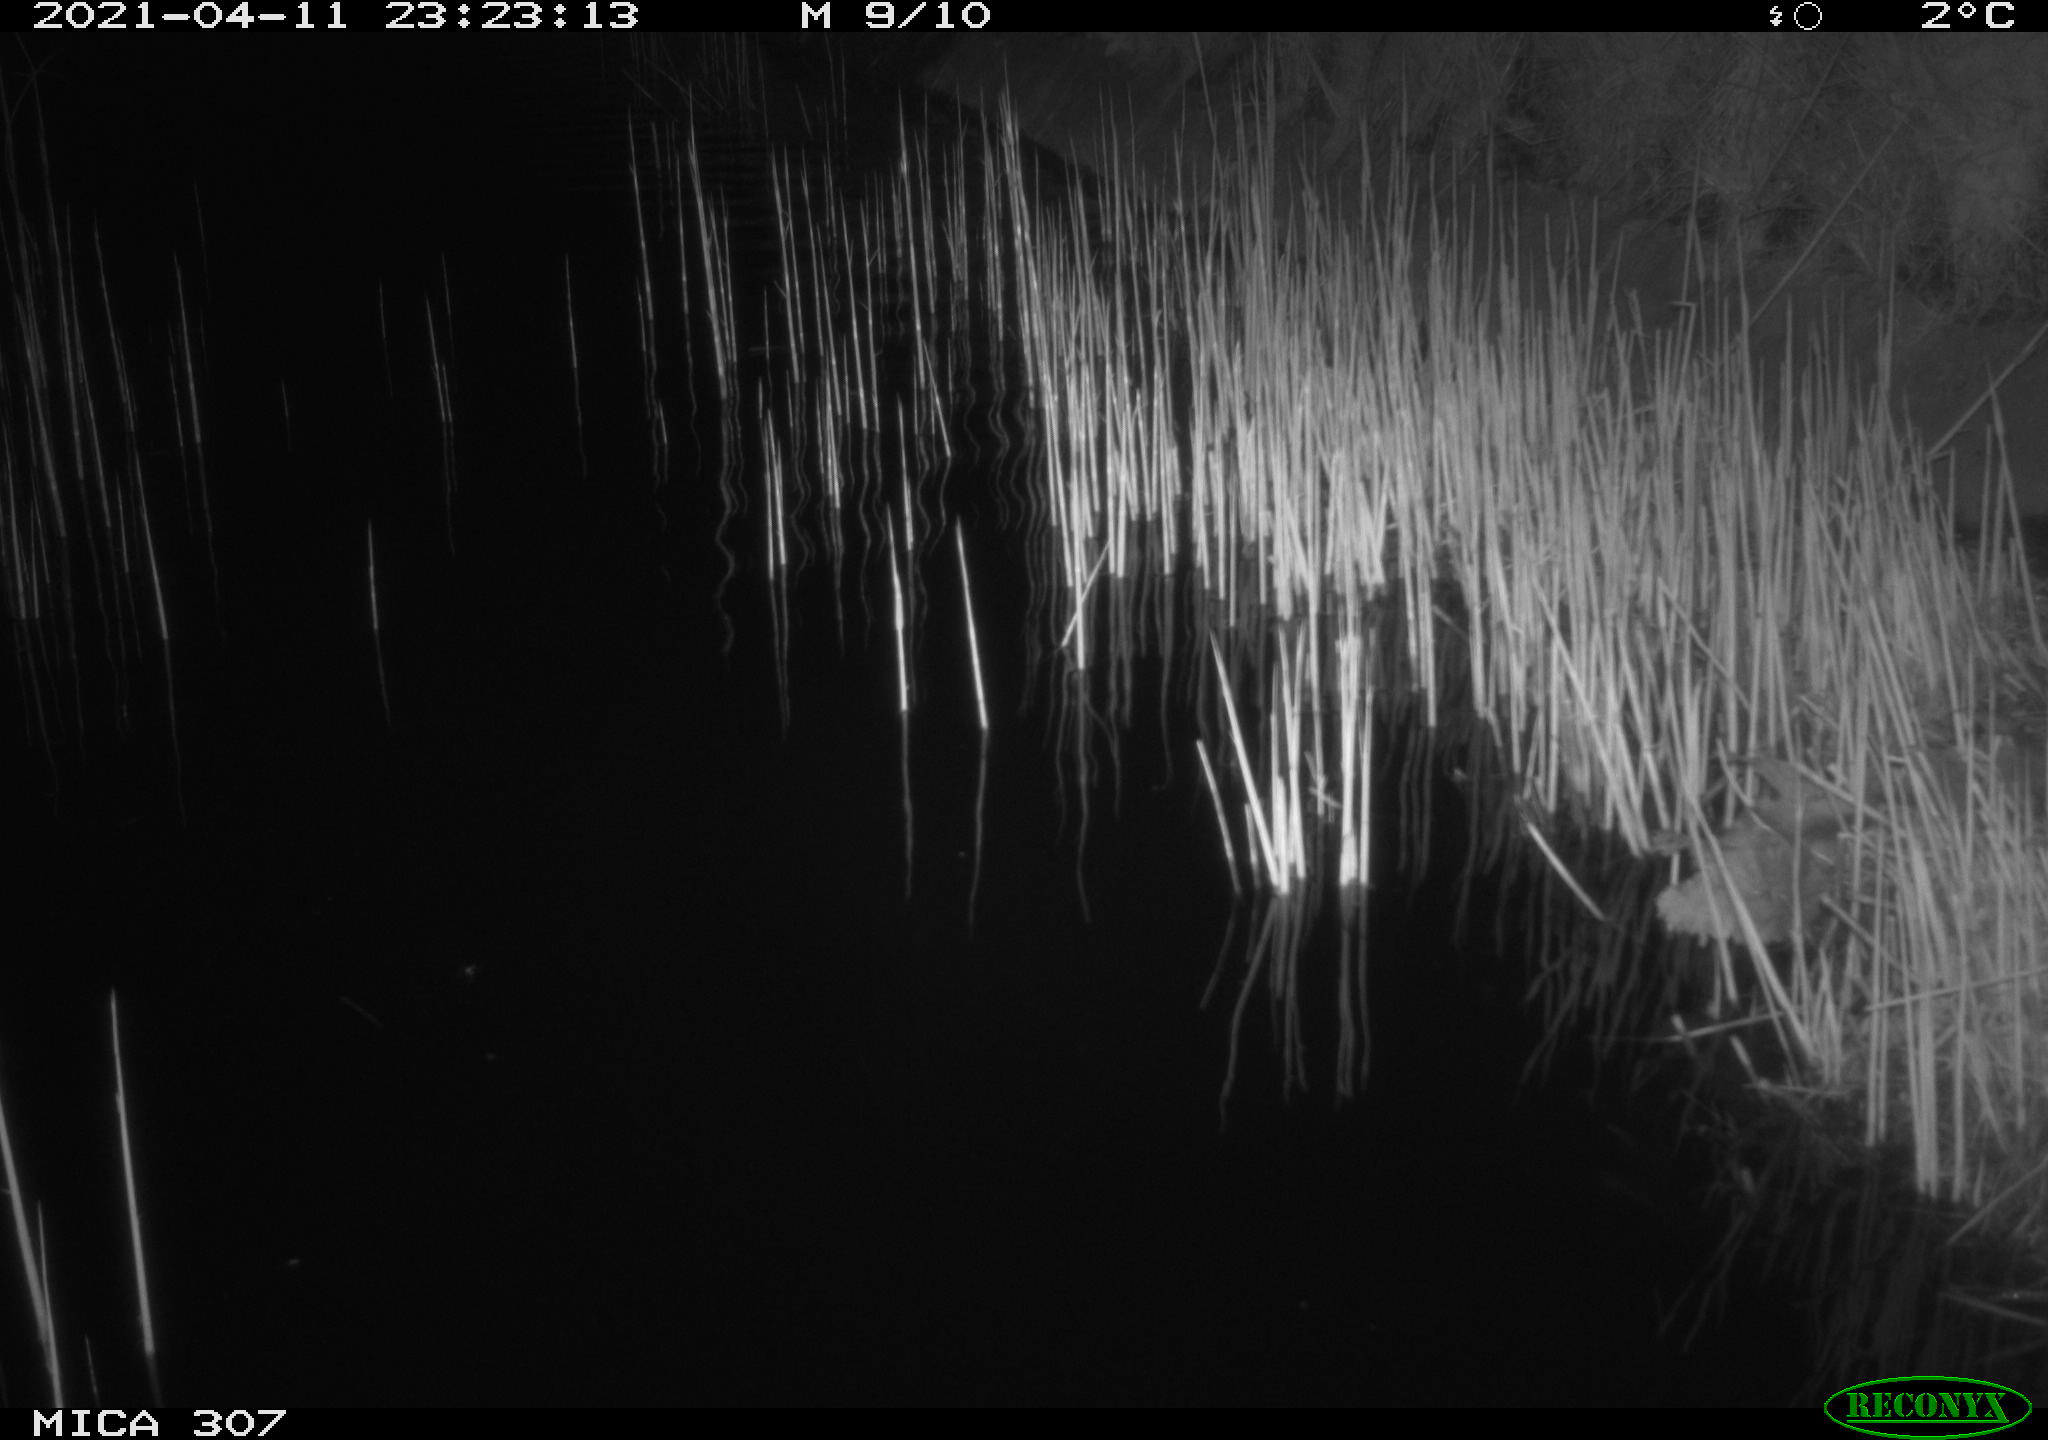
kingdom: Animalia
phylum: Chordata
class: Mammalia
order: Rodentia
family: Cricetidae
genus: Ondatra
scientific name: Ondatra zibethicus
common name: Muskrat
